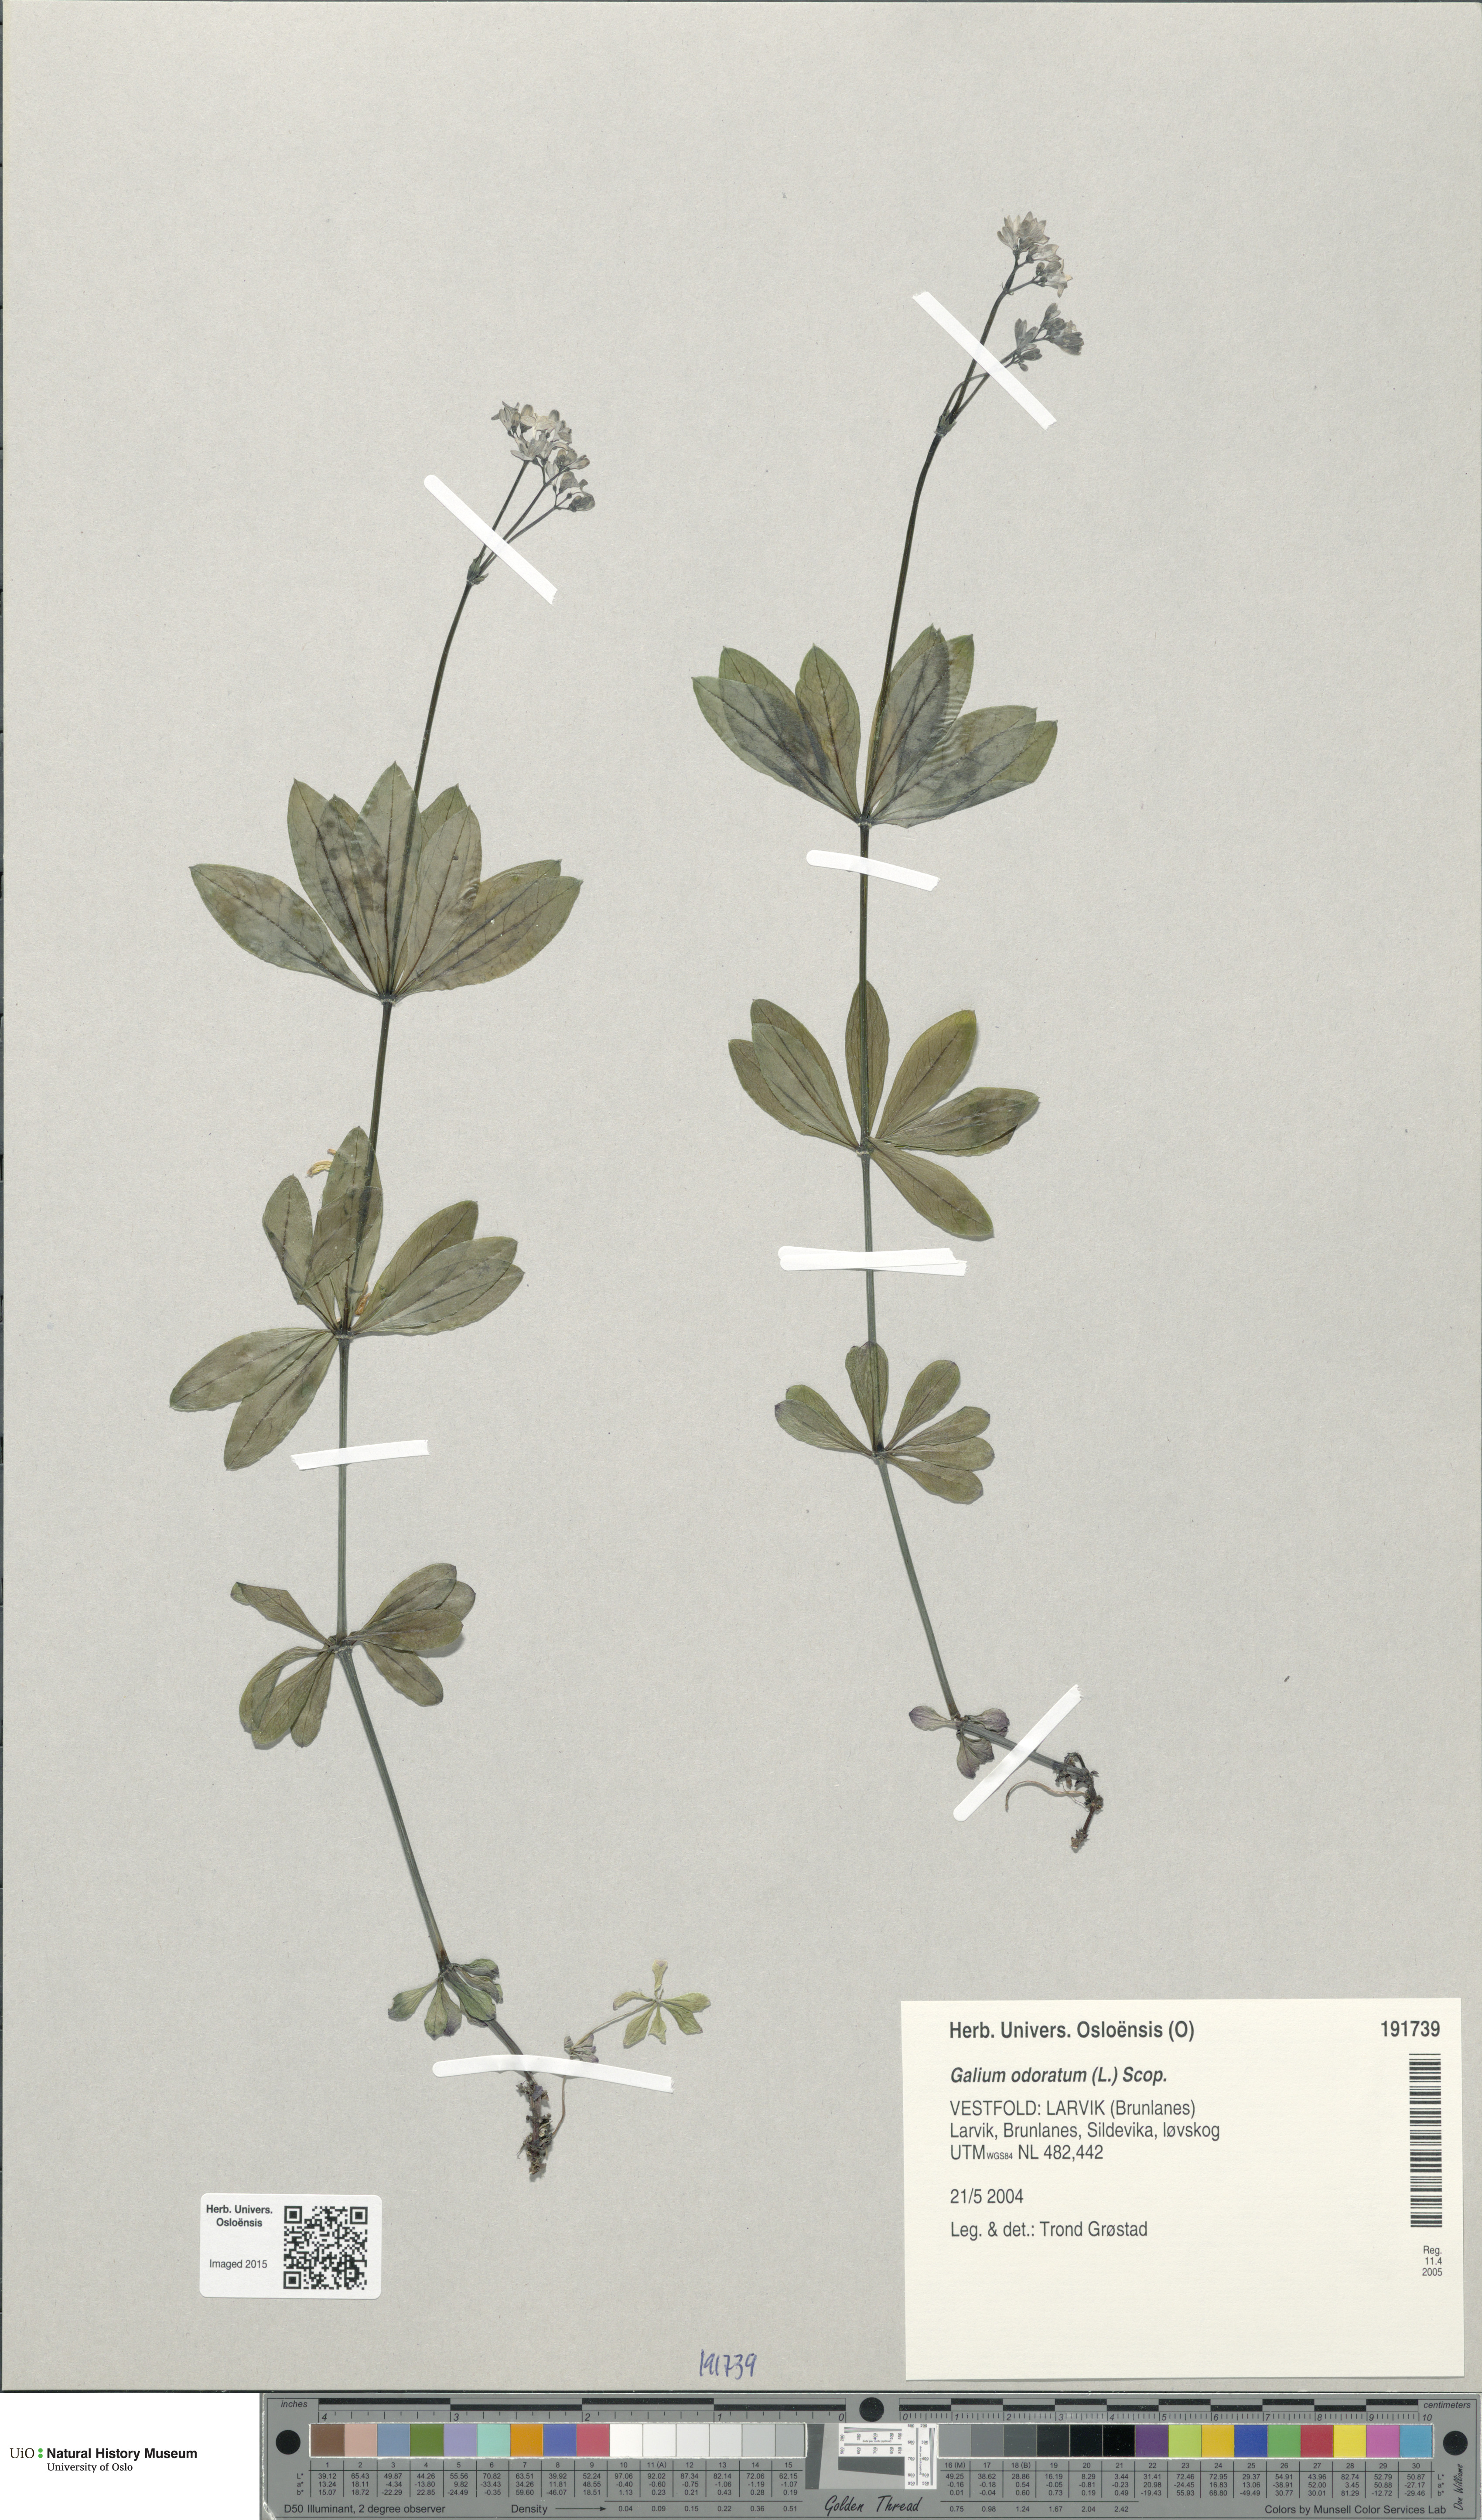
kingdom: Plantae
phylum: Tracheophyta
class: Magnoliopsida
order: Gentianales
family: Rubiaceae
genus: Galium
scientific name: Galium odoratum
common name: Sweet woodruff
